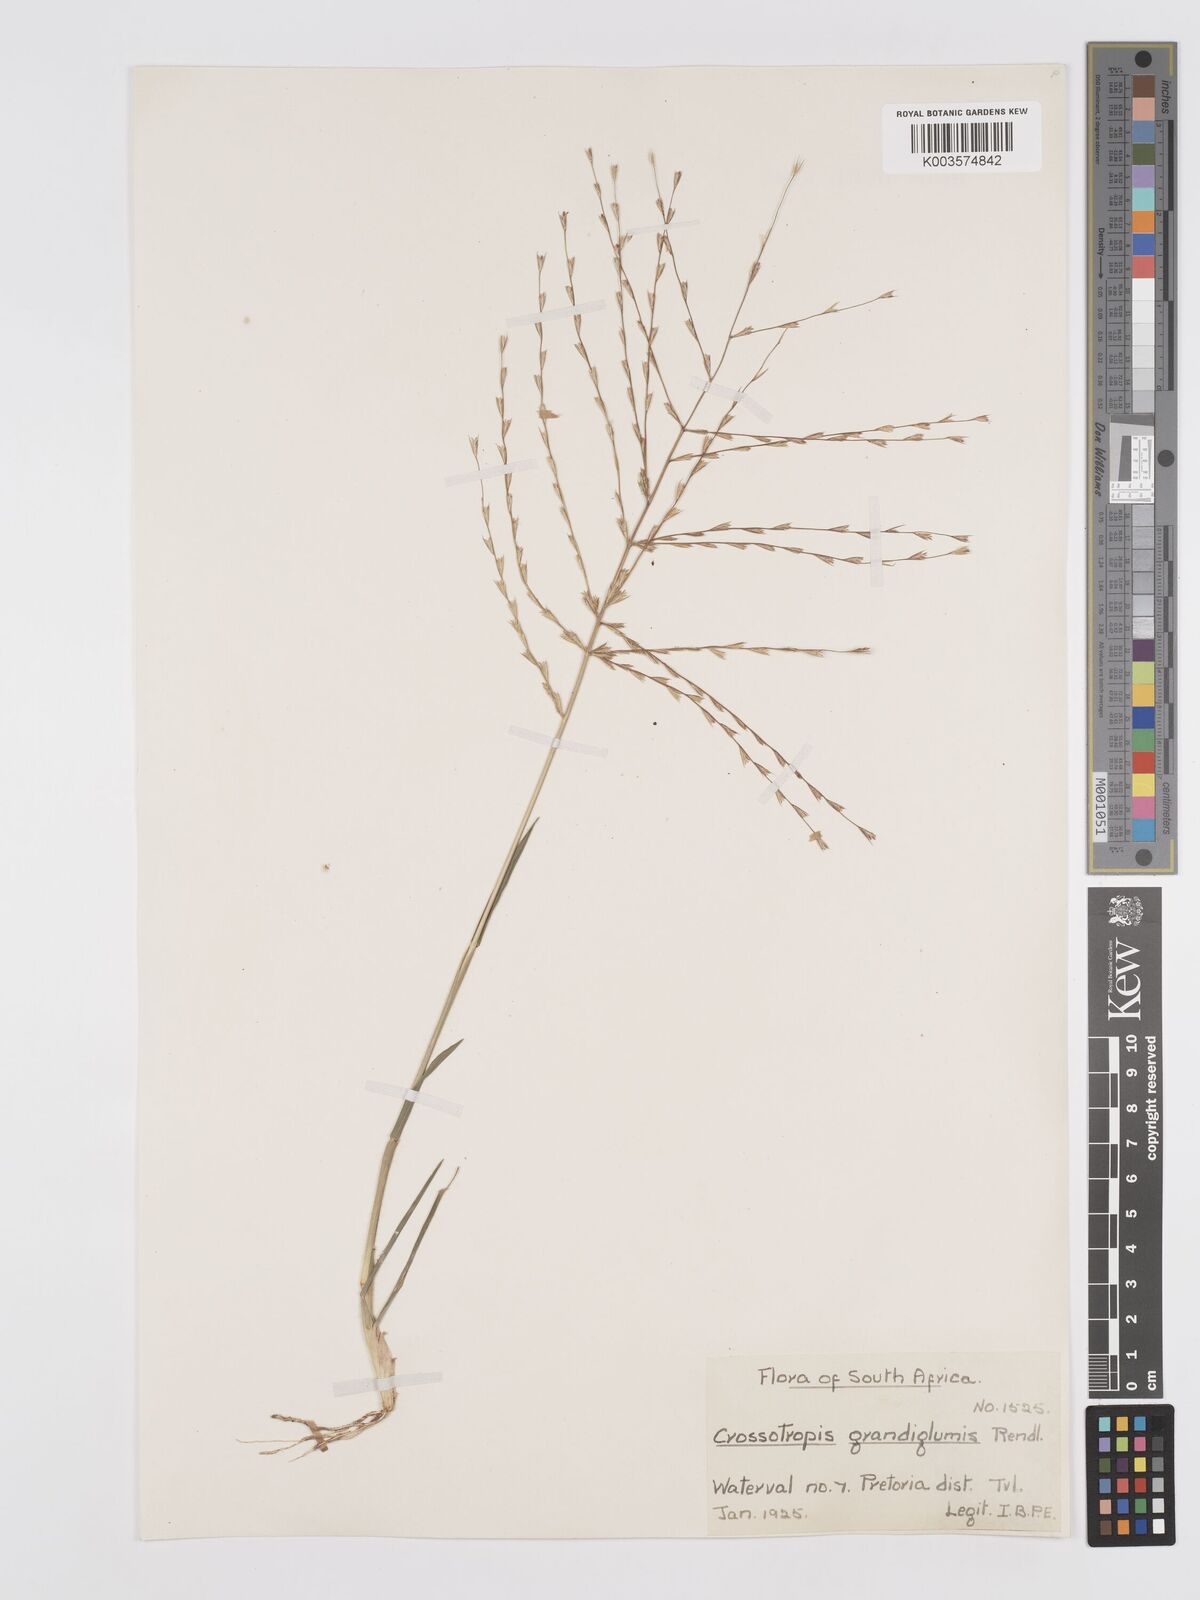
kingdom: Plantae
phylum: Tracheophyta
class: Liliopsida
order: Poales
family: Poaceae
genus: Trichoneura
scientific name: Trichoneura grandiglumis
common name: Rolling grass
